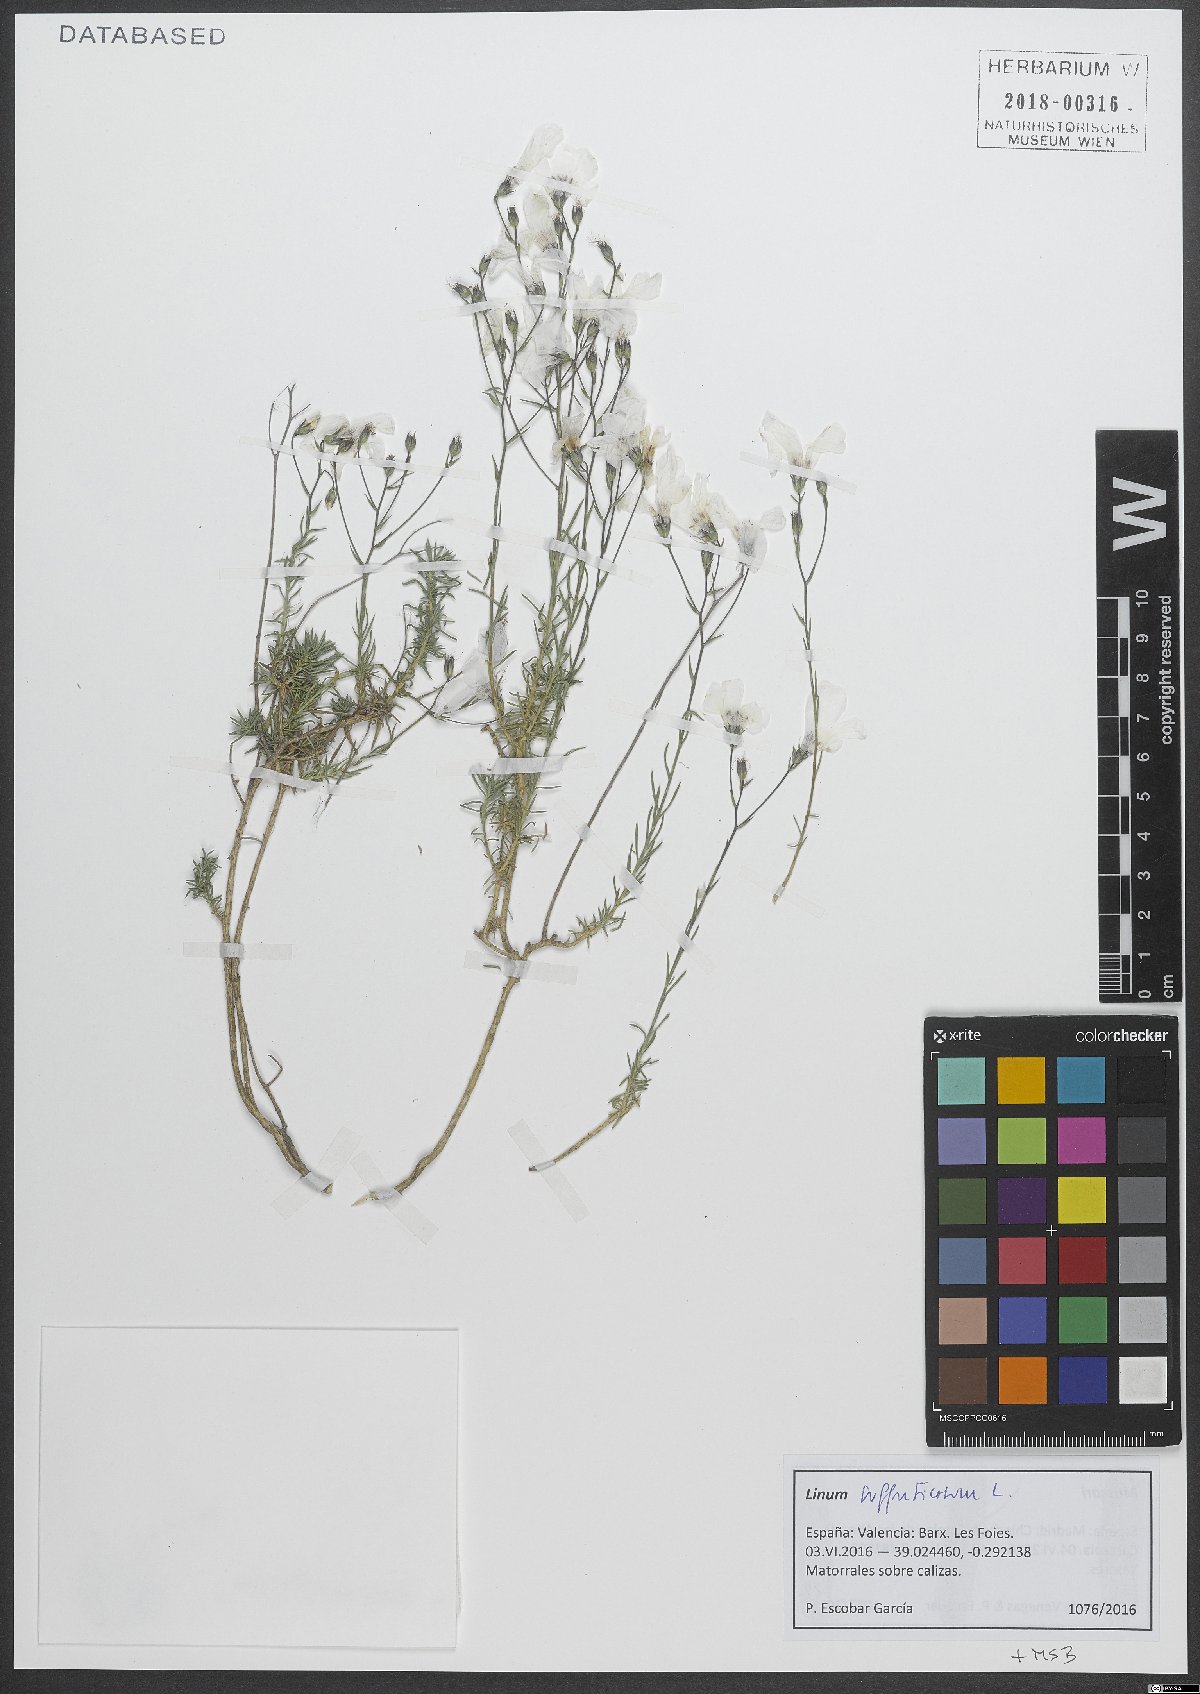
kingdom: Plantae
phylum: Tracheophyta
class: Magnoliopsida
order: Malpighiales
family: Linaceae
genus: Linum
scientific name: Linum suffruticosum
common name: White flax
